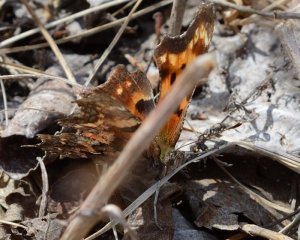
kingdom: Animalia
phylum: Arthropoda
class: Insecta
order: Lepidoptera
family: Nymphalidae
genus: Polygonia
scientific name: Polygonia faunus
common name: Green Comma
